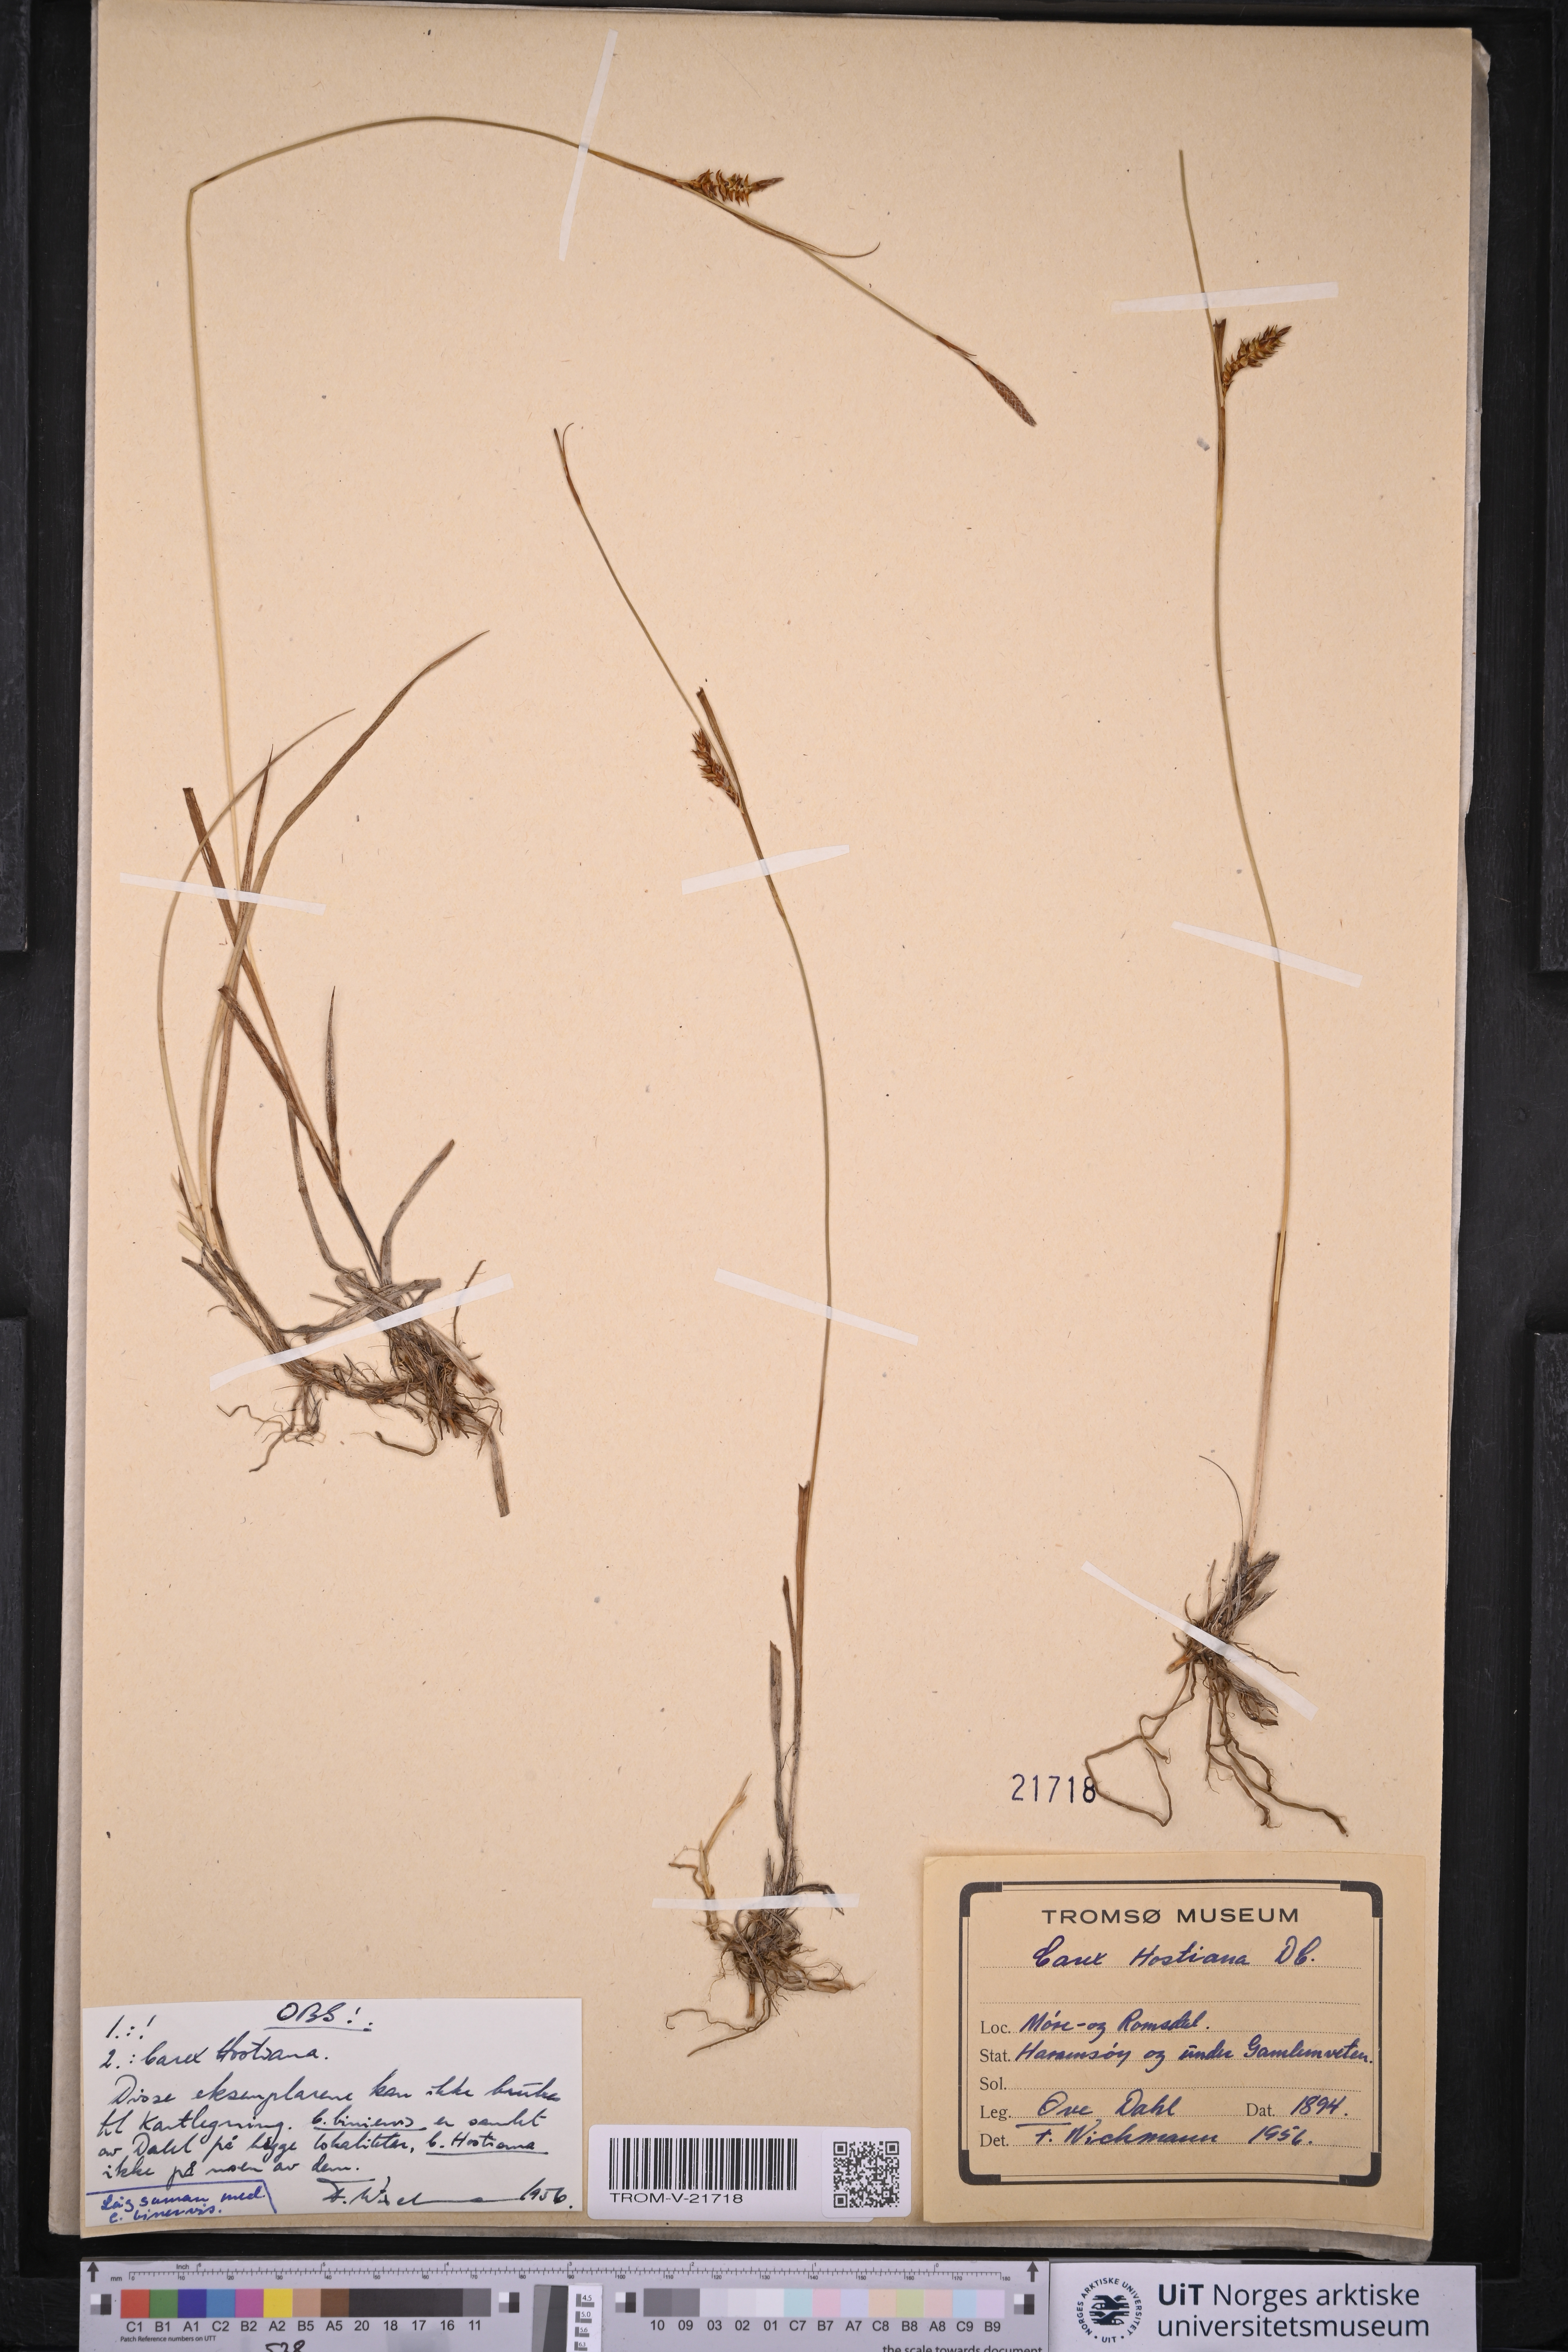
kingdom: Plantae
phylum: Tracheophyta
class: Liliopsida
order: Poales
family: Cyperaceae
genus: Carex
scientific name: Carex hostiana
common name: Tawny sedge
